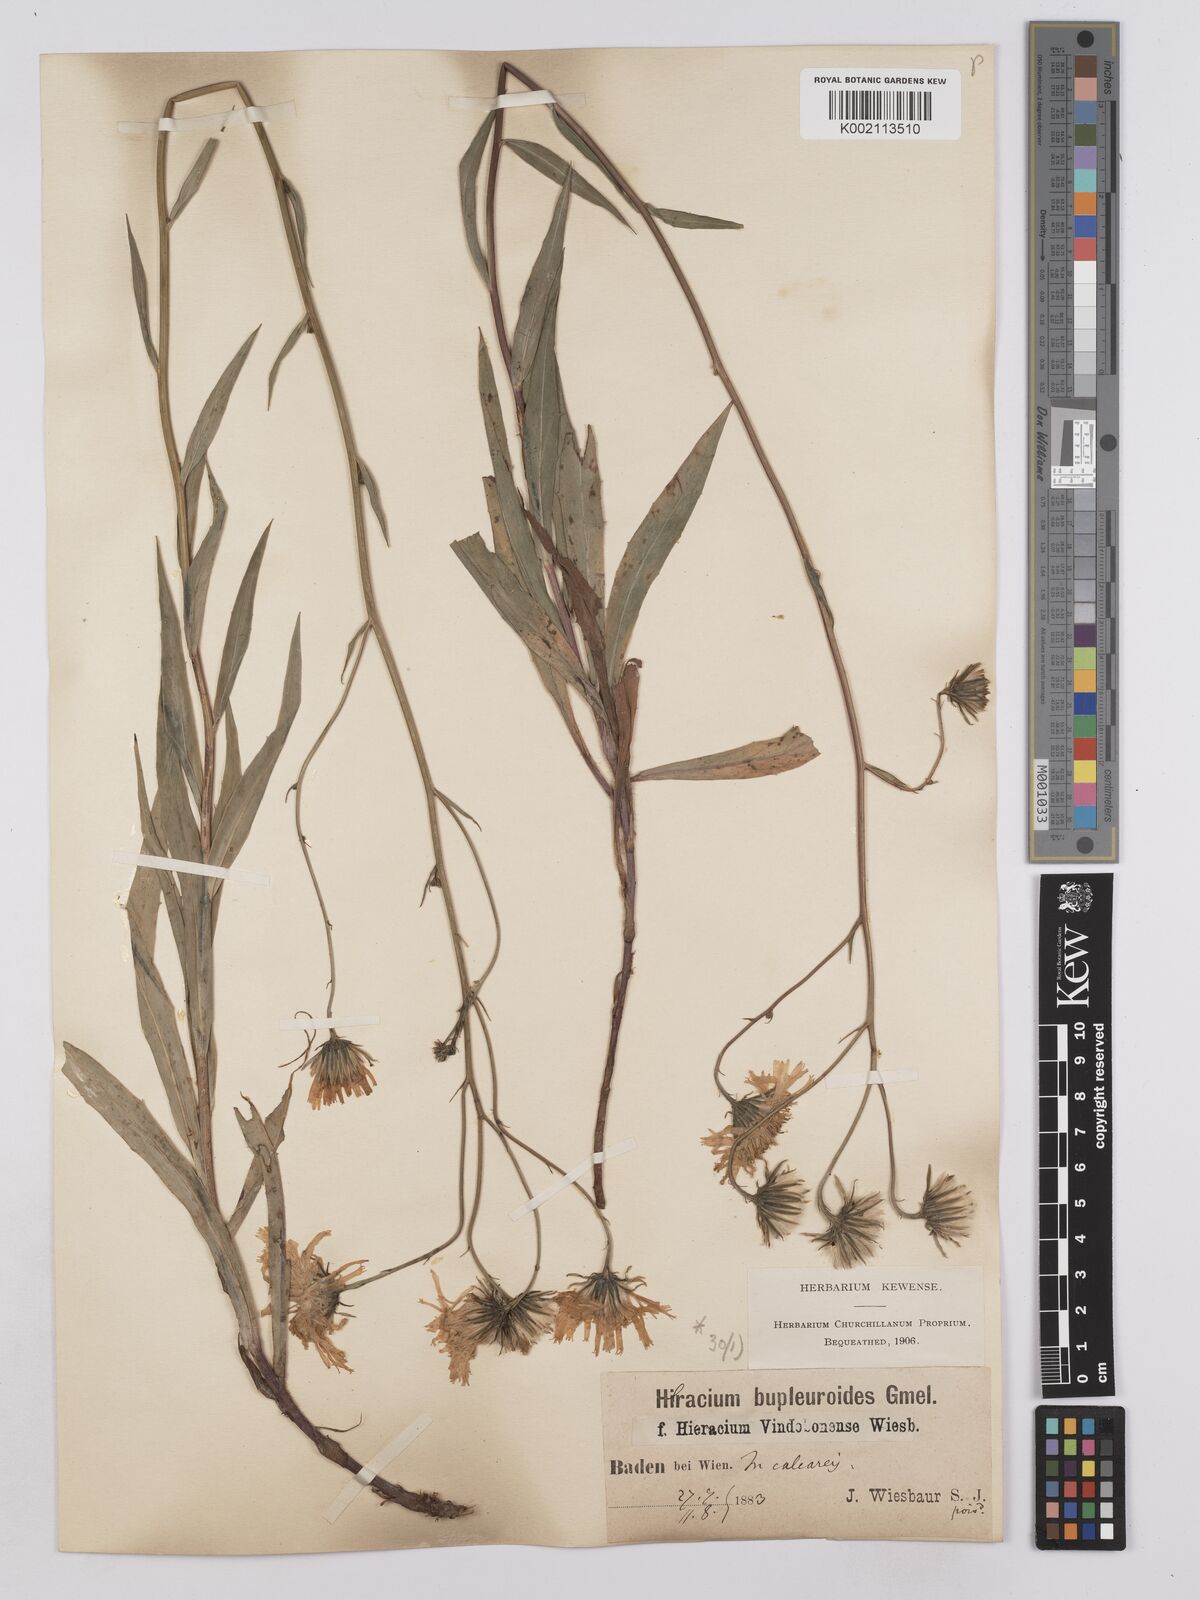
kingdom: Plantae
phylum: Tracheophyta
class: Magnoliopsida
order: Asterales
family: Asteraceae
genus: Hieracium
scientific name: Hieracium vindobonense
